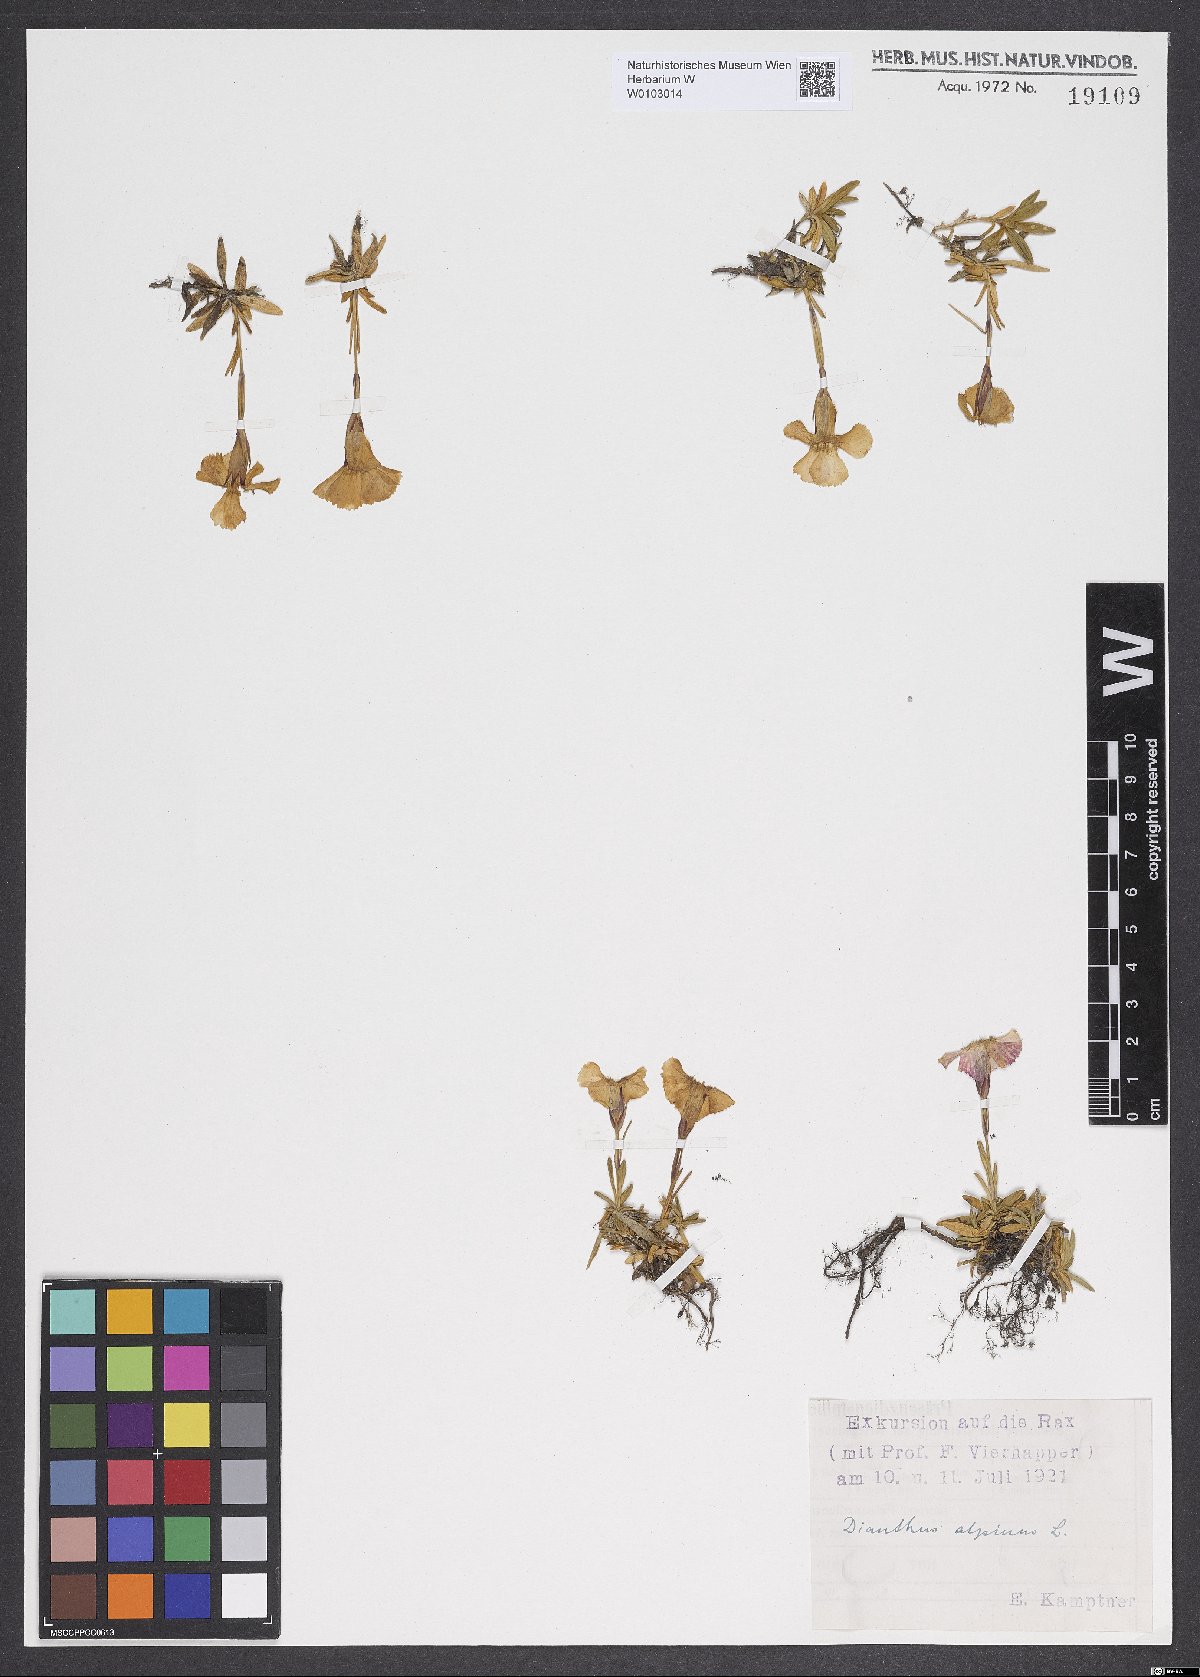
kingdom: Plantae
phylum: Tracheophyta
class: Magnoliopsida
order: Caryophyllales
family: Caryophyllaceae
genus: Dianthus
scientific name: Dianthus alpinus
